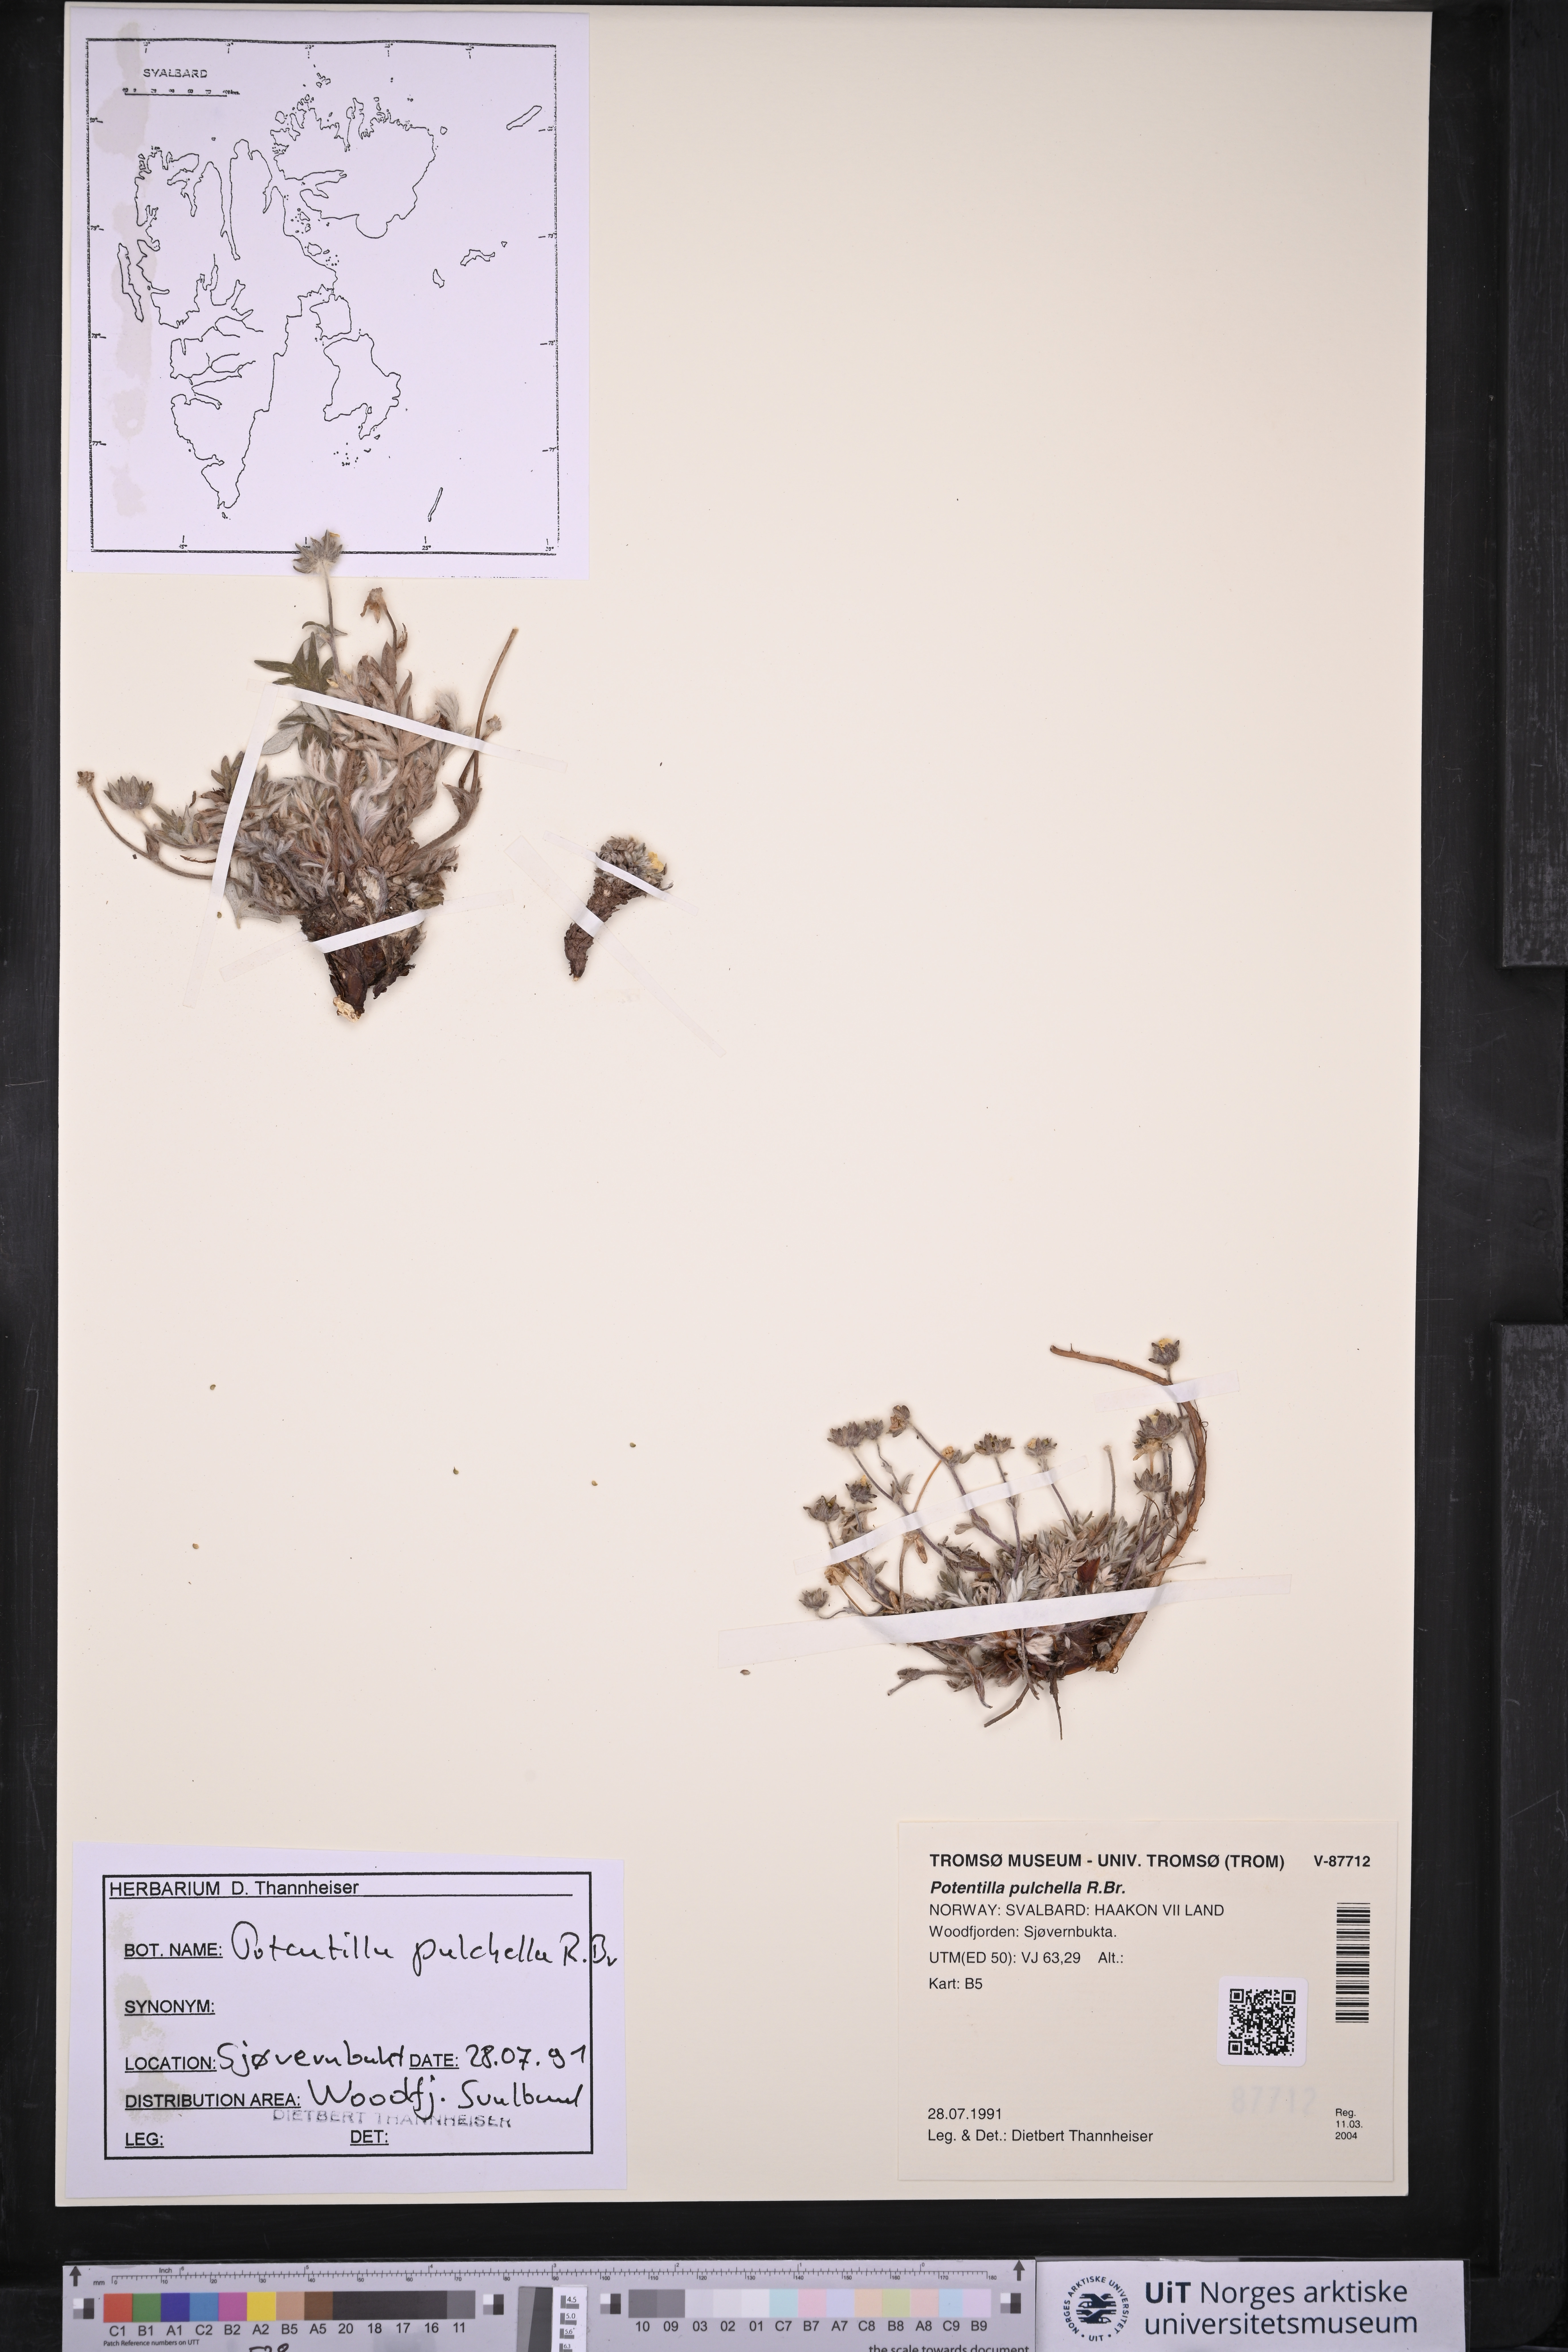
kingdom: Plantae
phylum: Tracheophyta
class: Magnoliopsida
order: Rosales
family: Rosaceae
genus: Potentilla
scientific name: Potentilla pulchella
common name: Pretty cinquefoil
